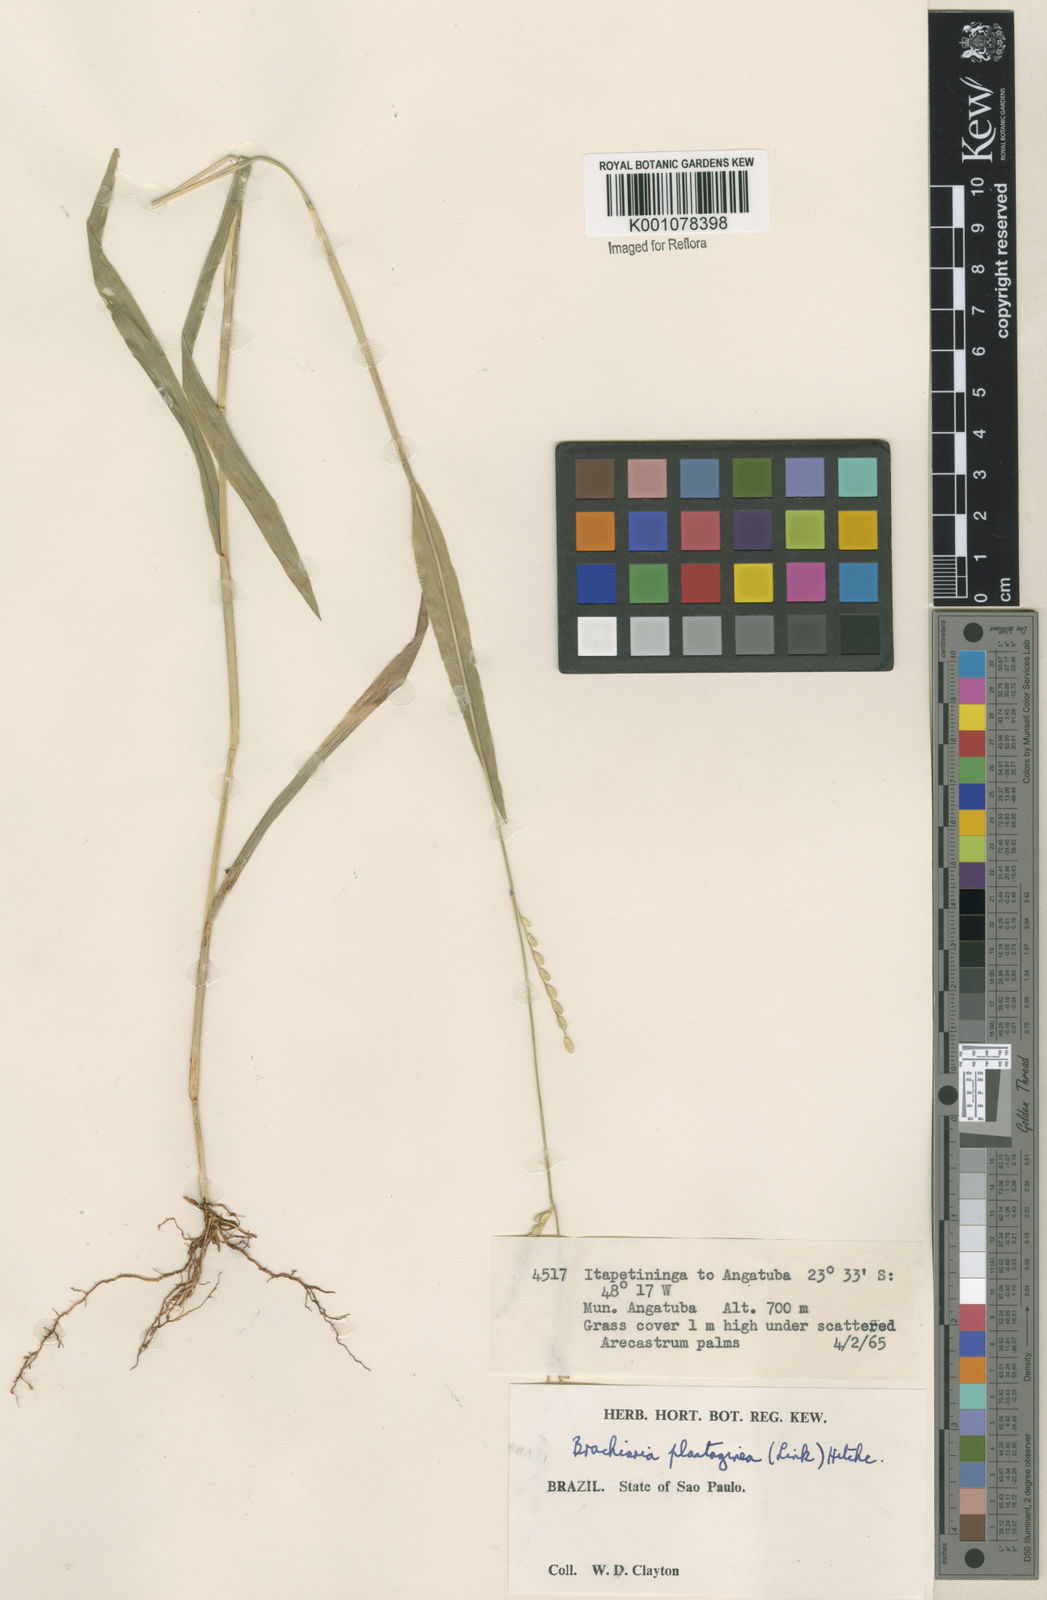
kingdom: Plantae
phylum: Tracheophyta
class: Liliopsida
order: Poales
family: Poaceae
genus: Urochloa
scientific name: Urochloa plantaginea
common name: Plantain signalgrass
